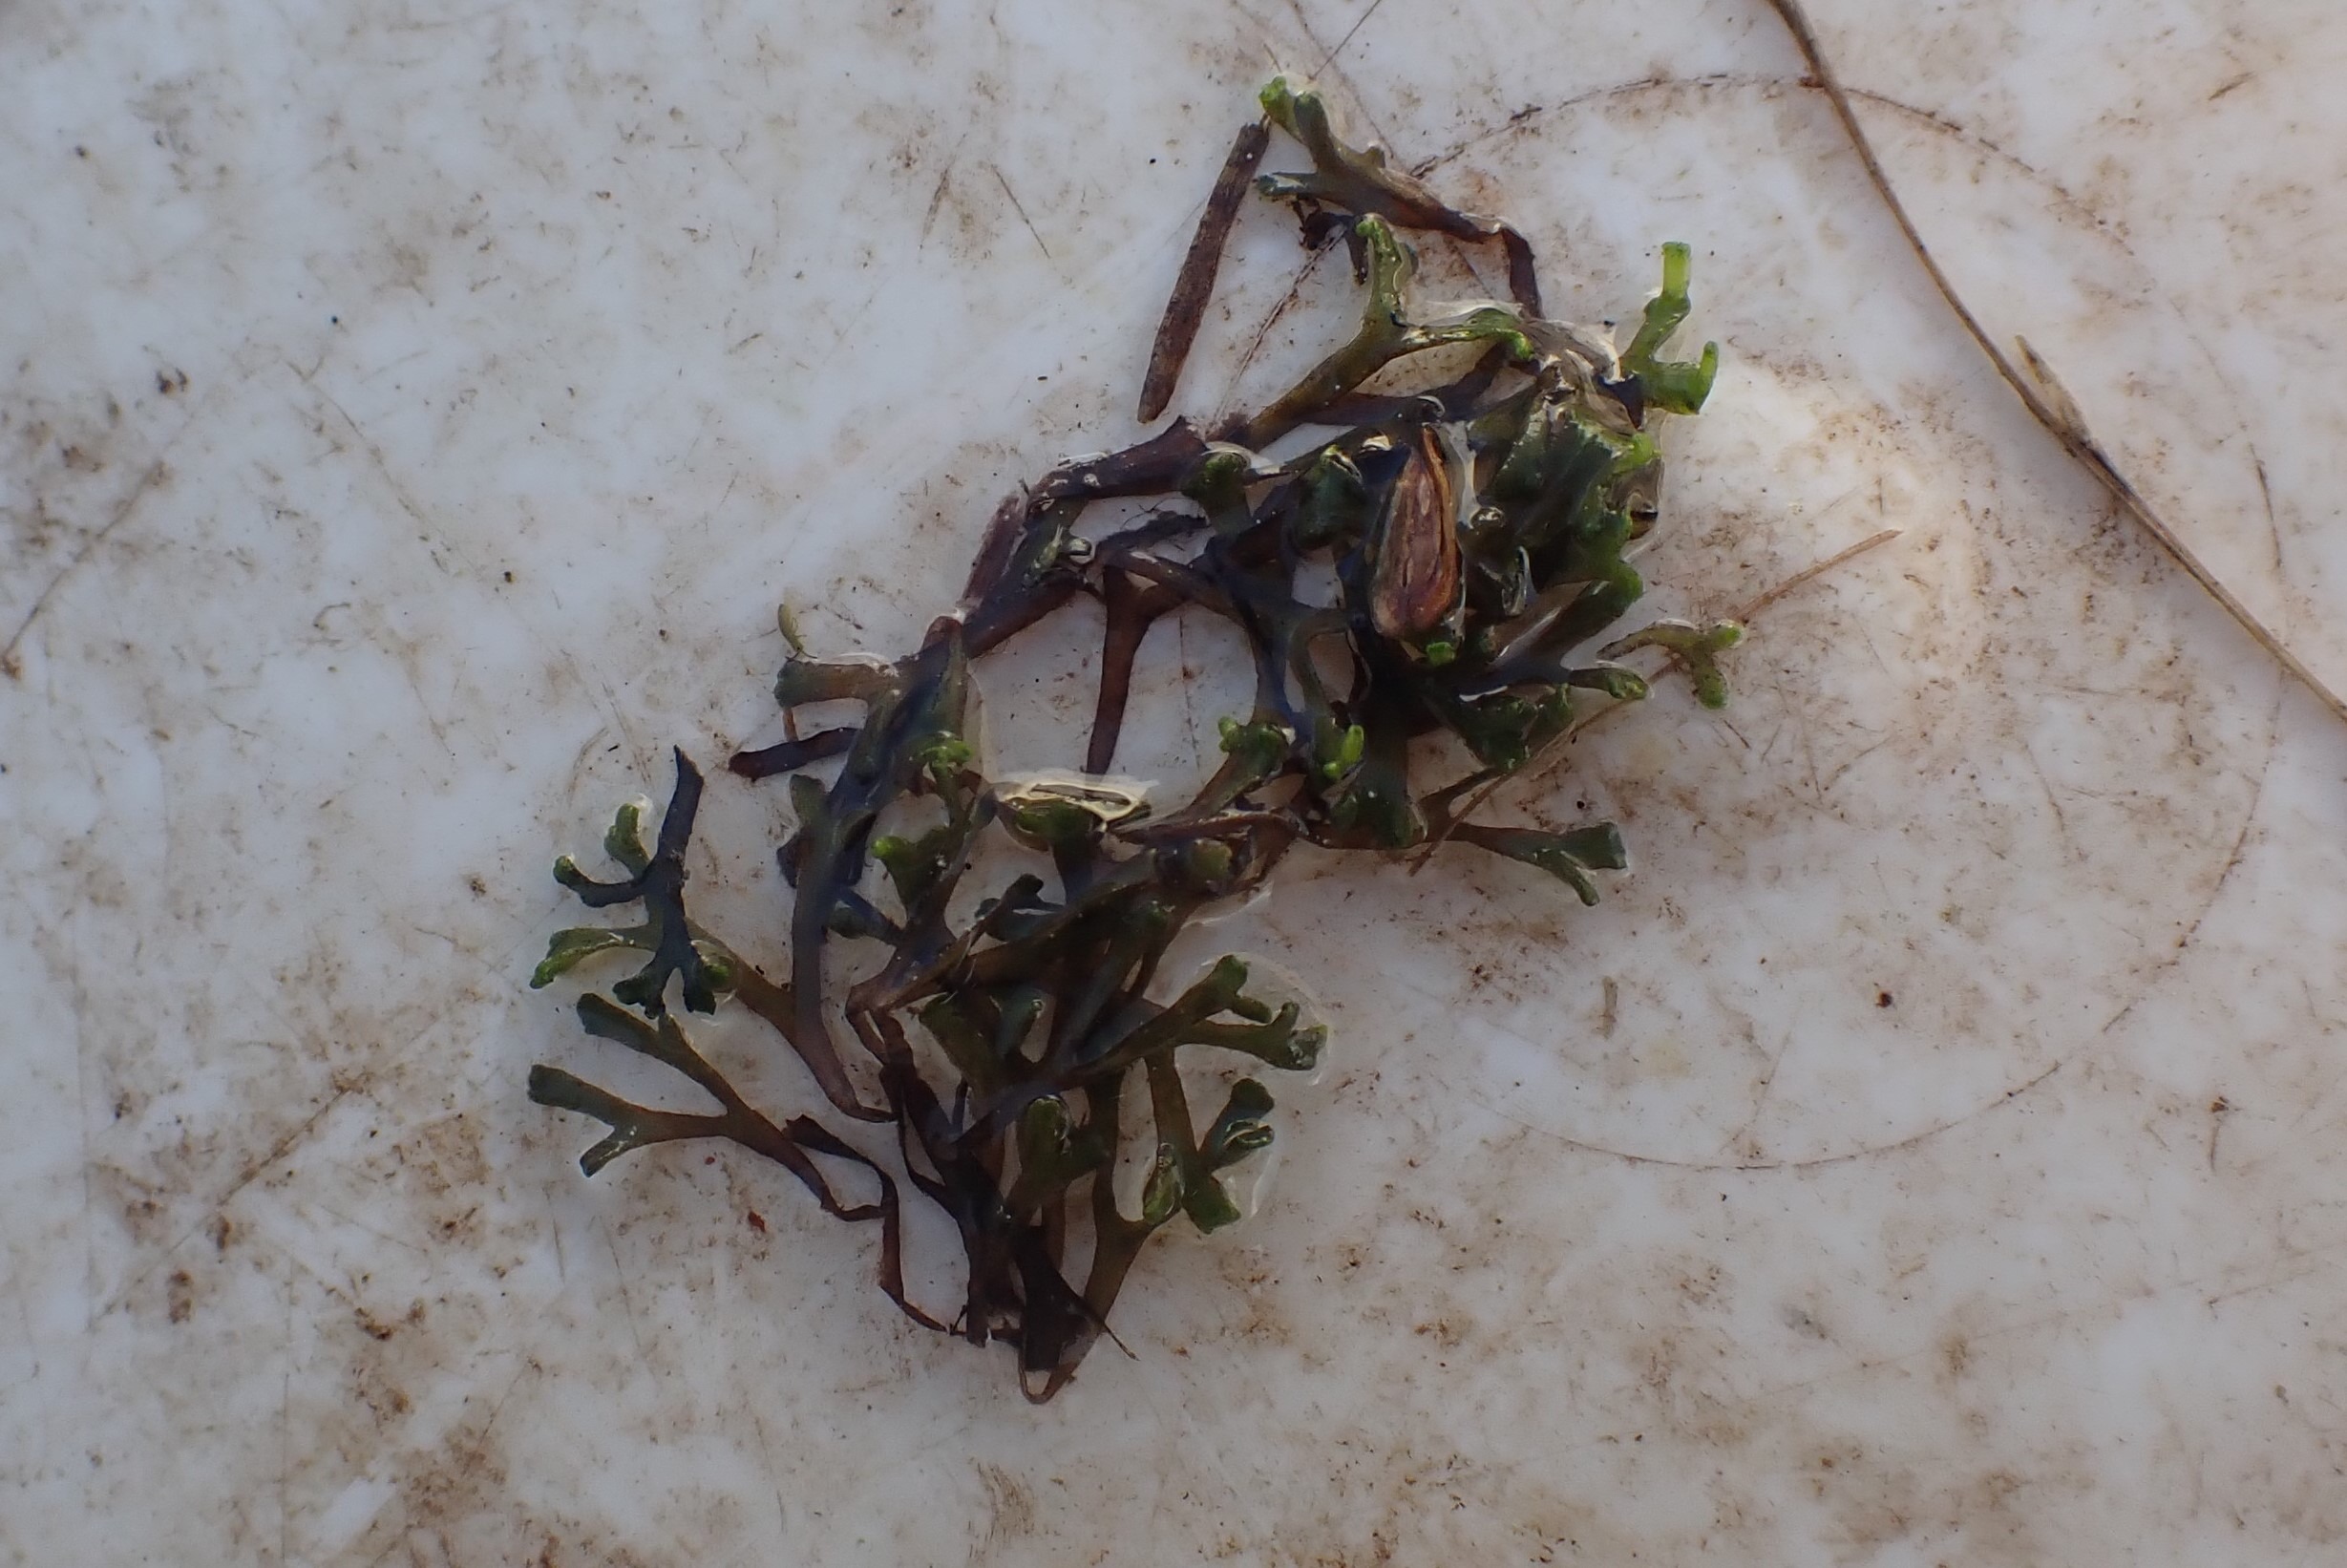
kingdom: Plantae
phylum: Marchantiophyta
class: Marchantiopsida
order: Marchantiales
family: Ricciaceae
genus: Riccia
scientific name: Riccia fluitans
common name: Svømmende stjerneløv
